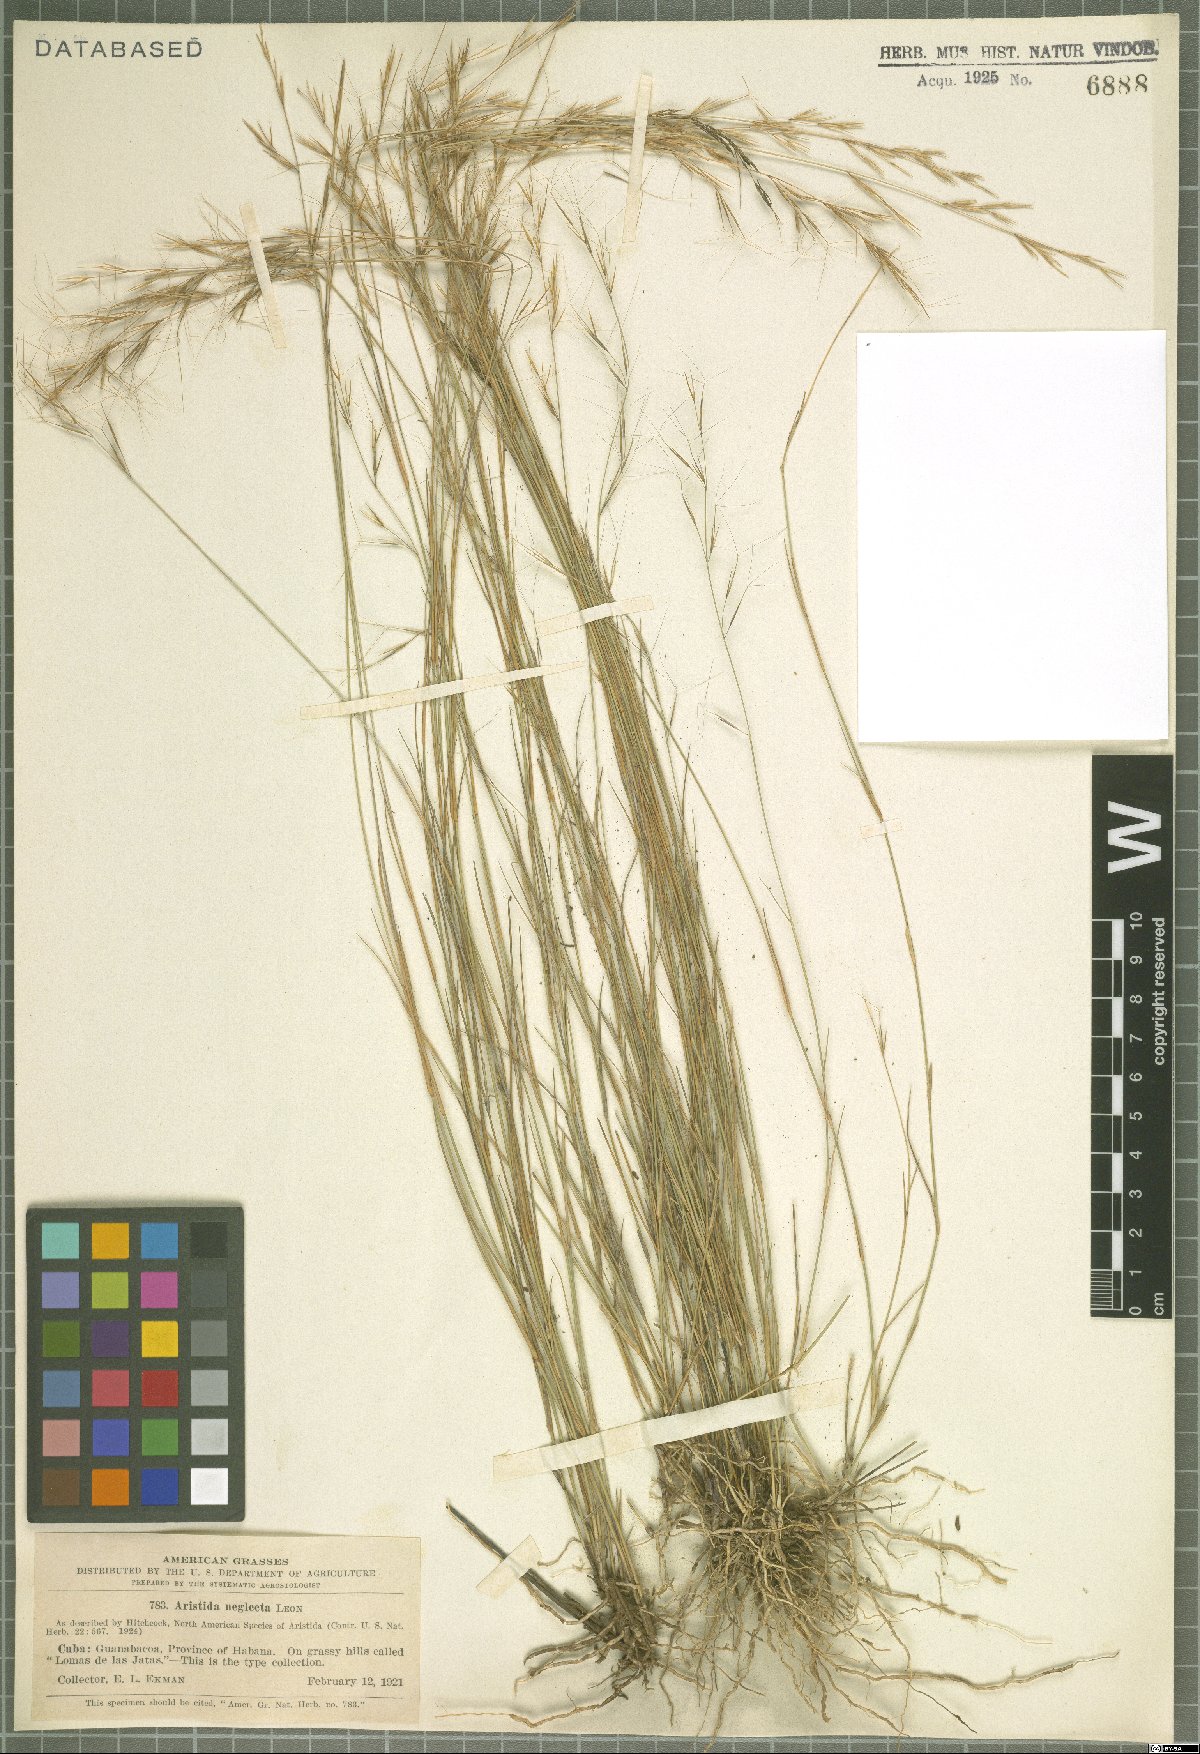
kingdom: Plantae
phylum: Tracheophyta
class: Liliopsida
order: Poales
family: Poaceae
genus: Aristida
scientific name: Aristida neglecta
